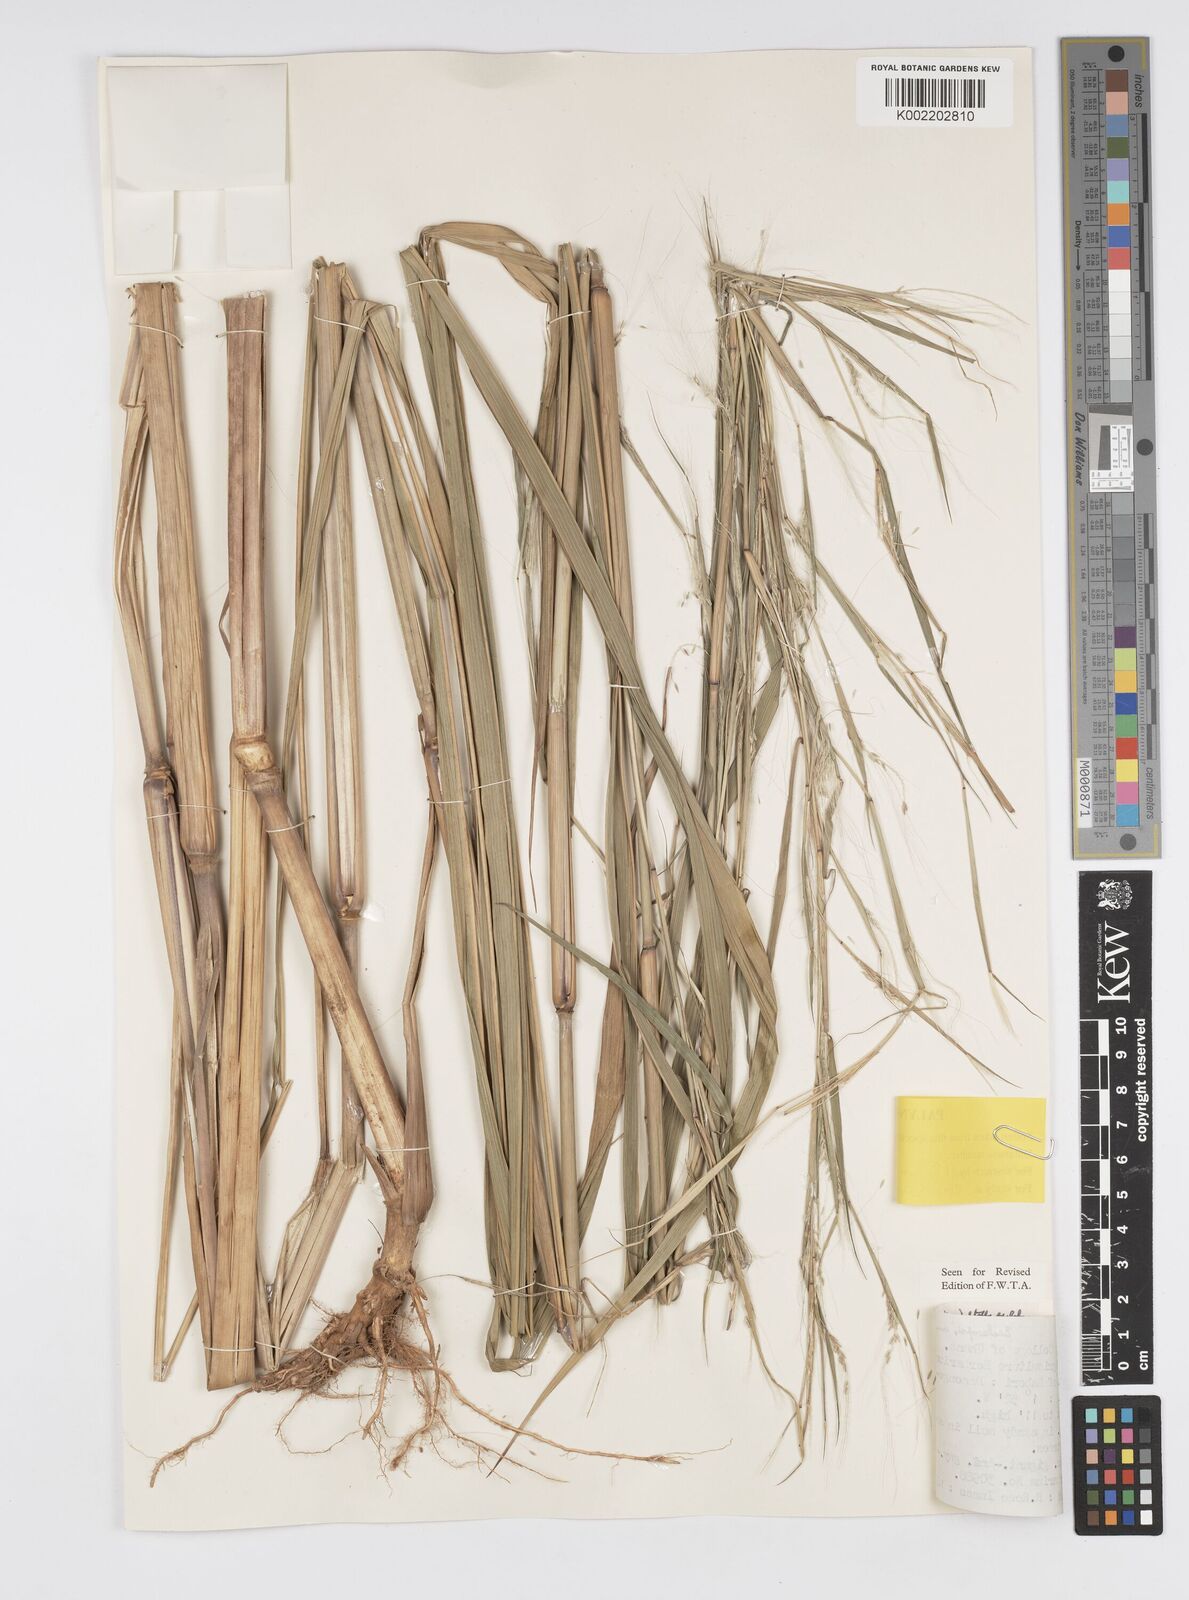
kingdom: Plantae
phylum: Tracheophyta
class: Liliopsida
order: Poales
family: Poaceae
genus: Cenchrus
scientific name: Cenchrus unisetus
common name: Natal grass
